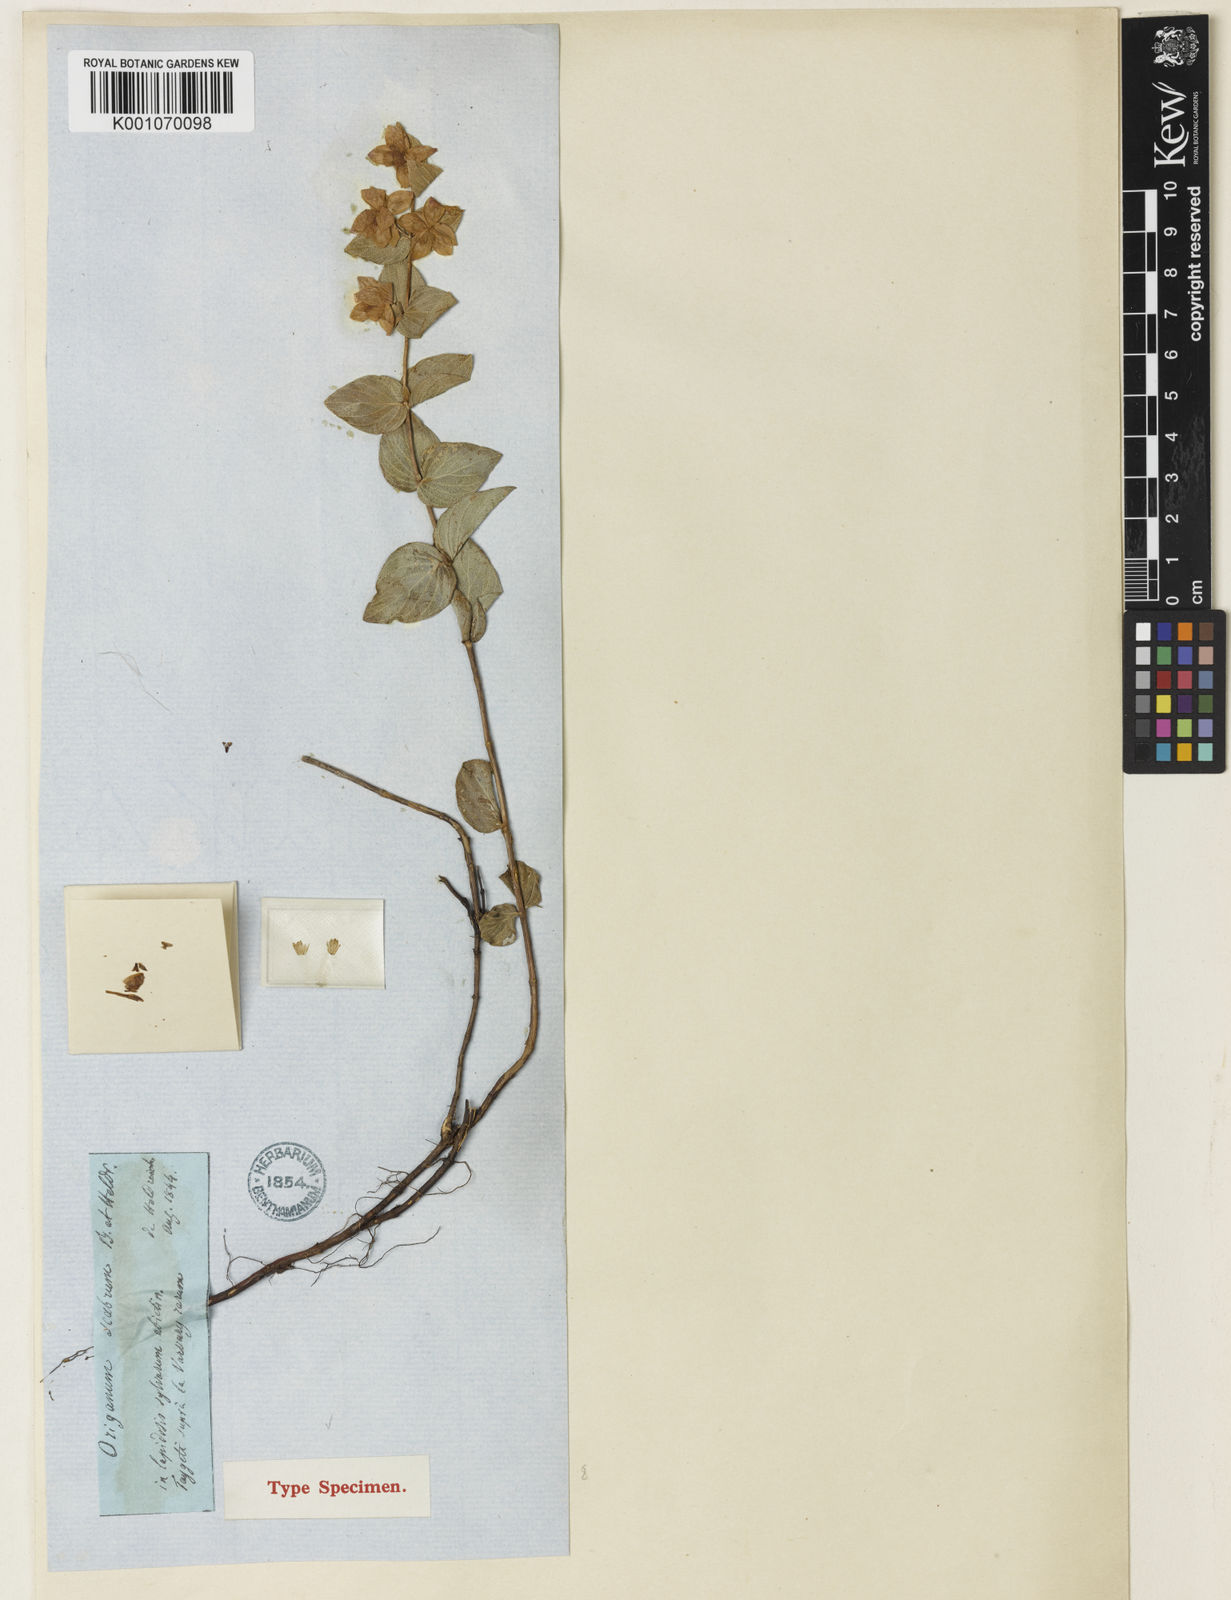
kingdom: Plantae
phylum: Tracheophyta
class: Magnoliopsida
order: Lamiales
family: Lamiaceae
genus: Origanum
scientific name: Origanum scabrum
